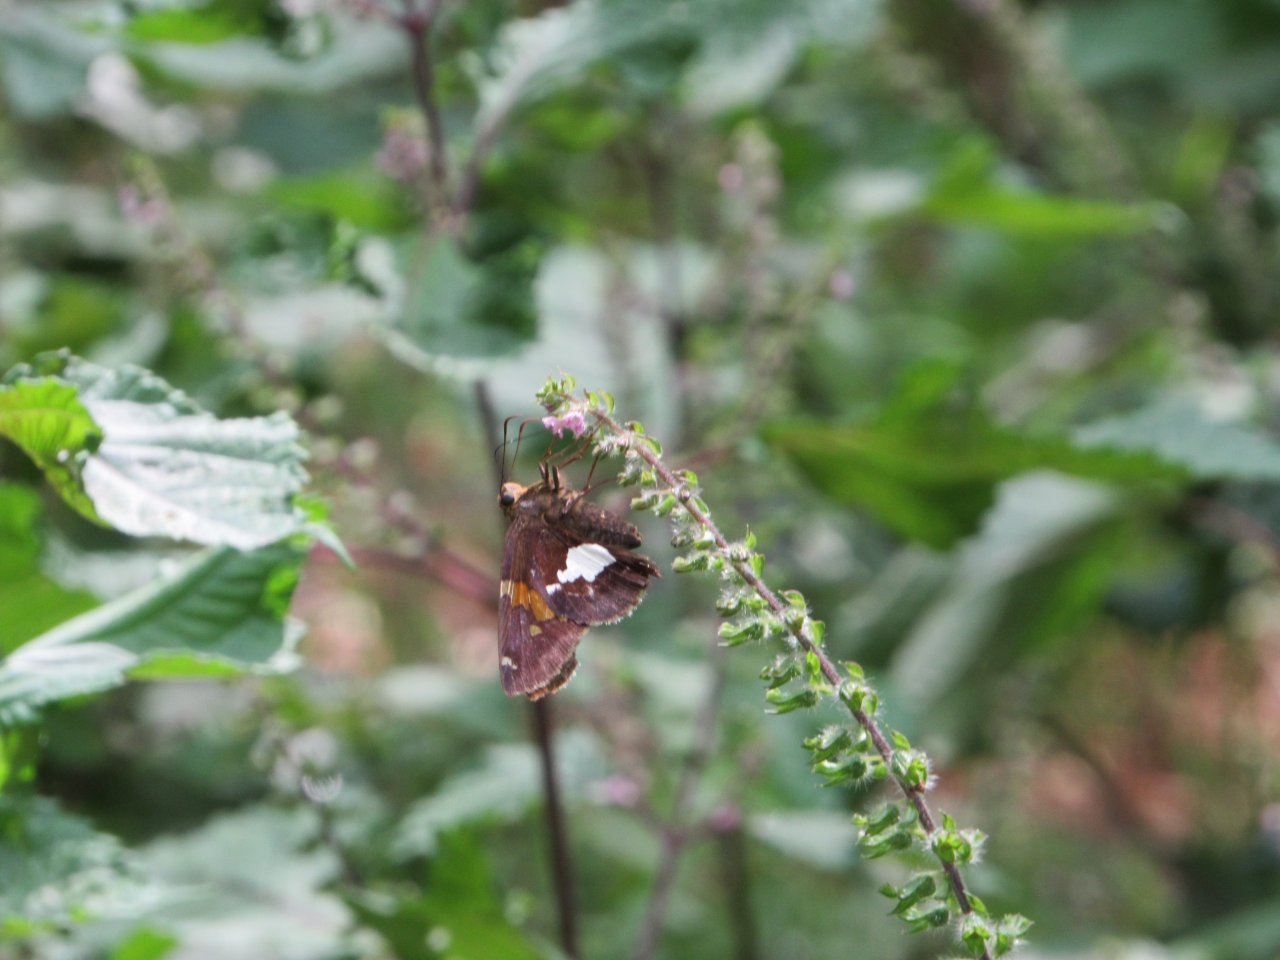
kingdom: Animalia
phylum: Arthropoda
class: Insecta
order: Lepidoptera
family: Hesperiidae
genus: Epargyreus
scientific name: Epargyreus clarus
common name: Silver-spotted Skipper
